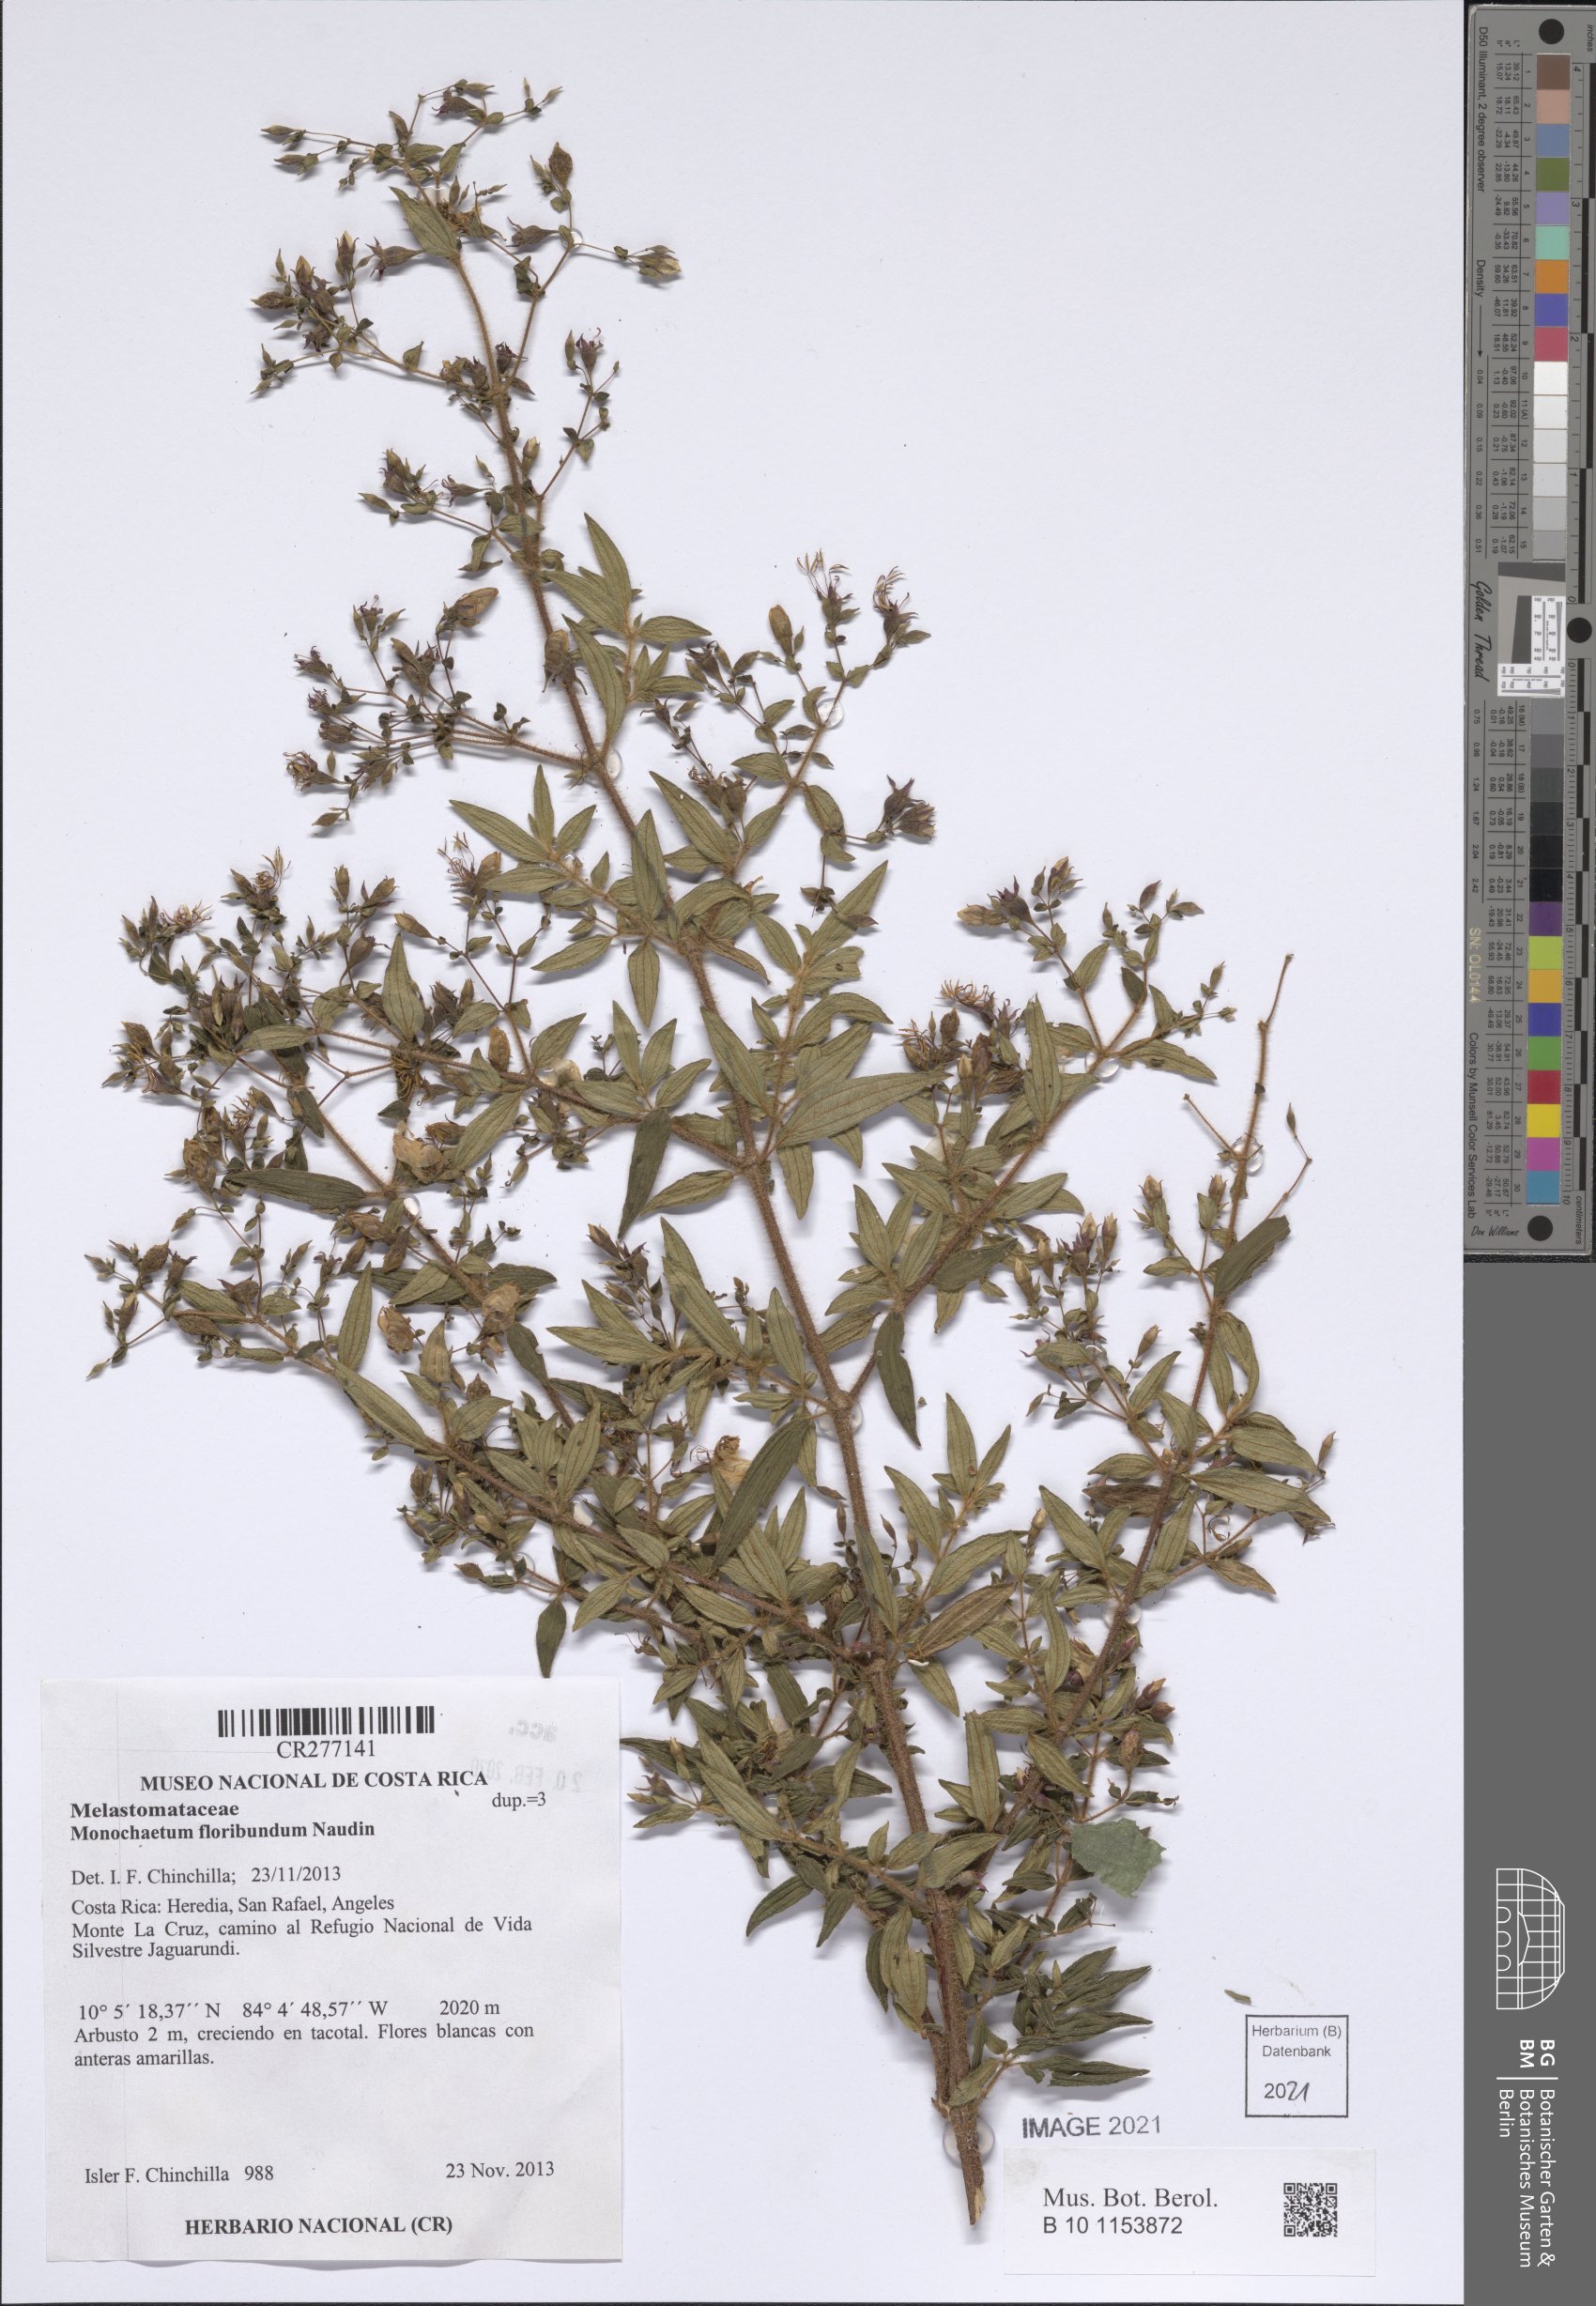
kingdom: Plantae
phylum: Tracheophyta
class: Magnoliopsida
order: Myrtales
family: Melastomataceae
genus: Monochaetum
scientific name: Monochaetum floribundum
